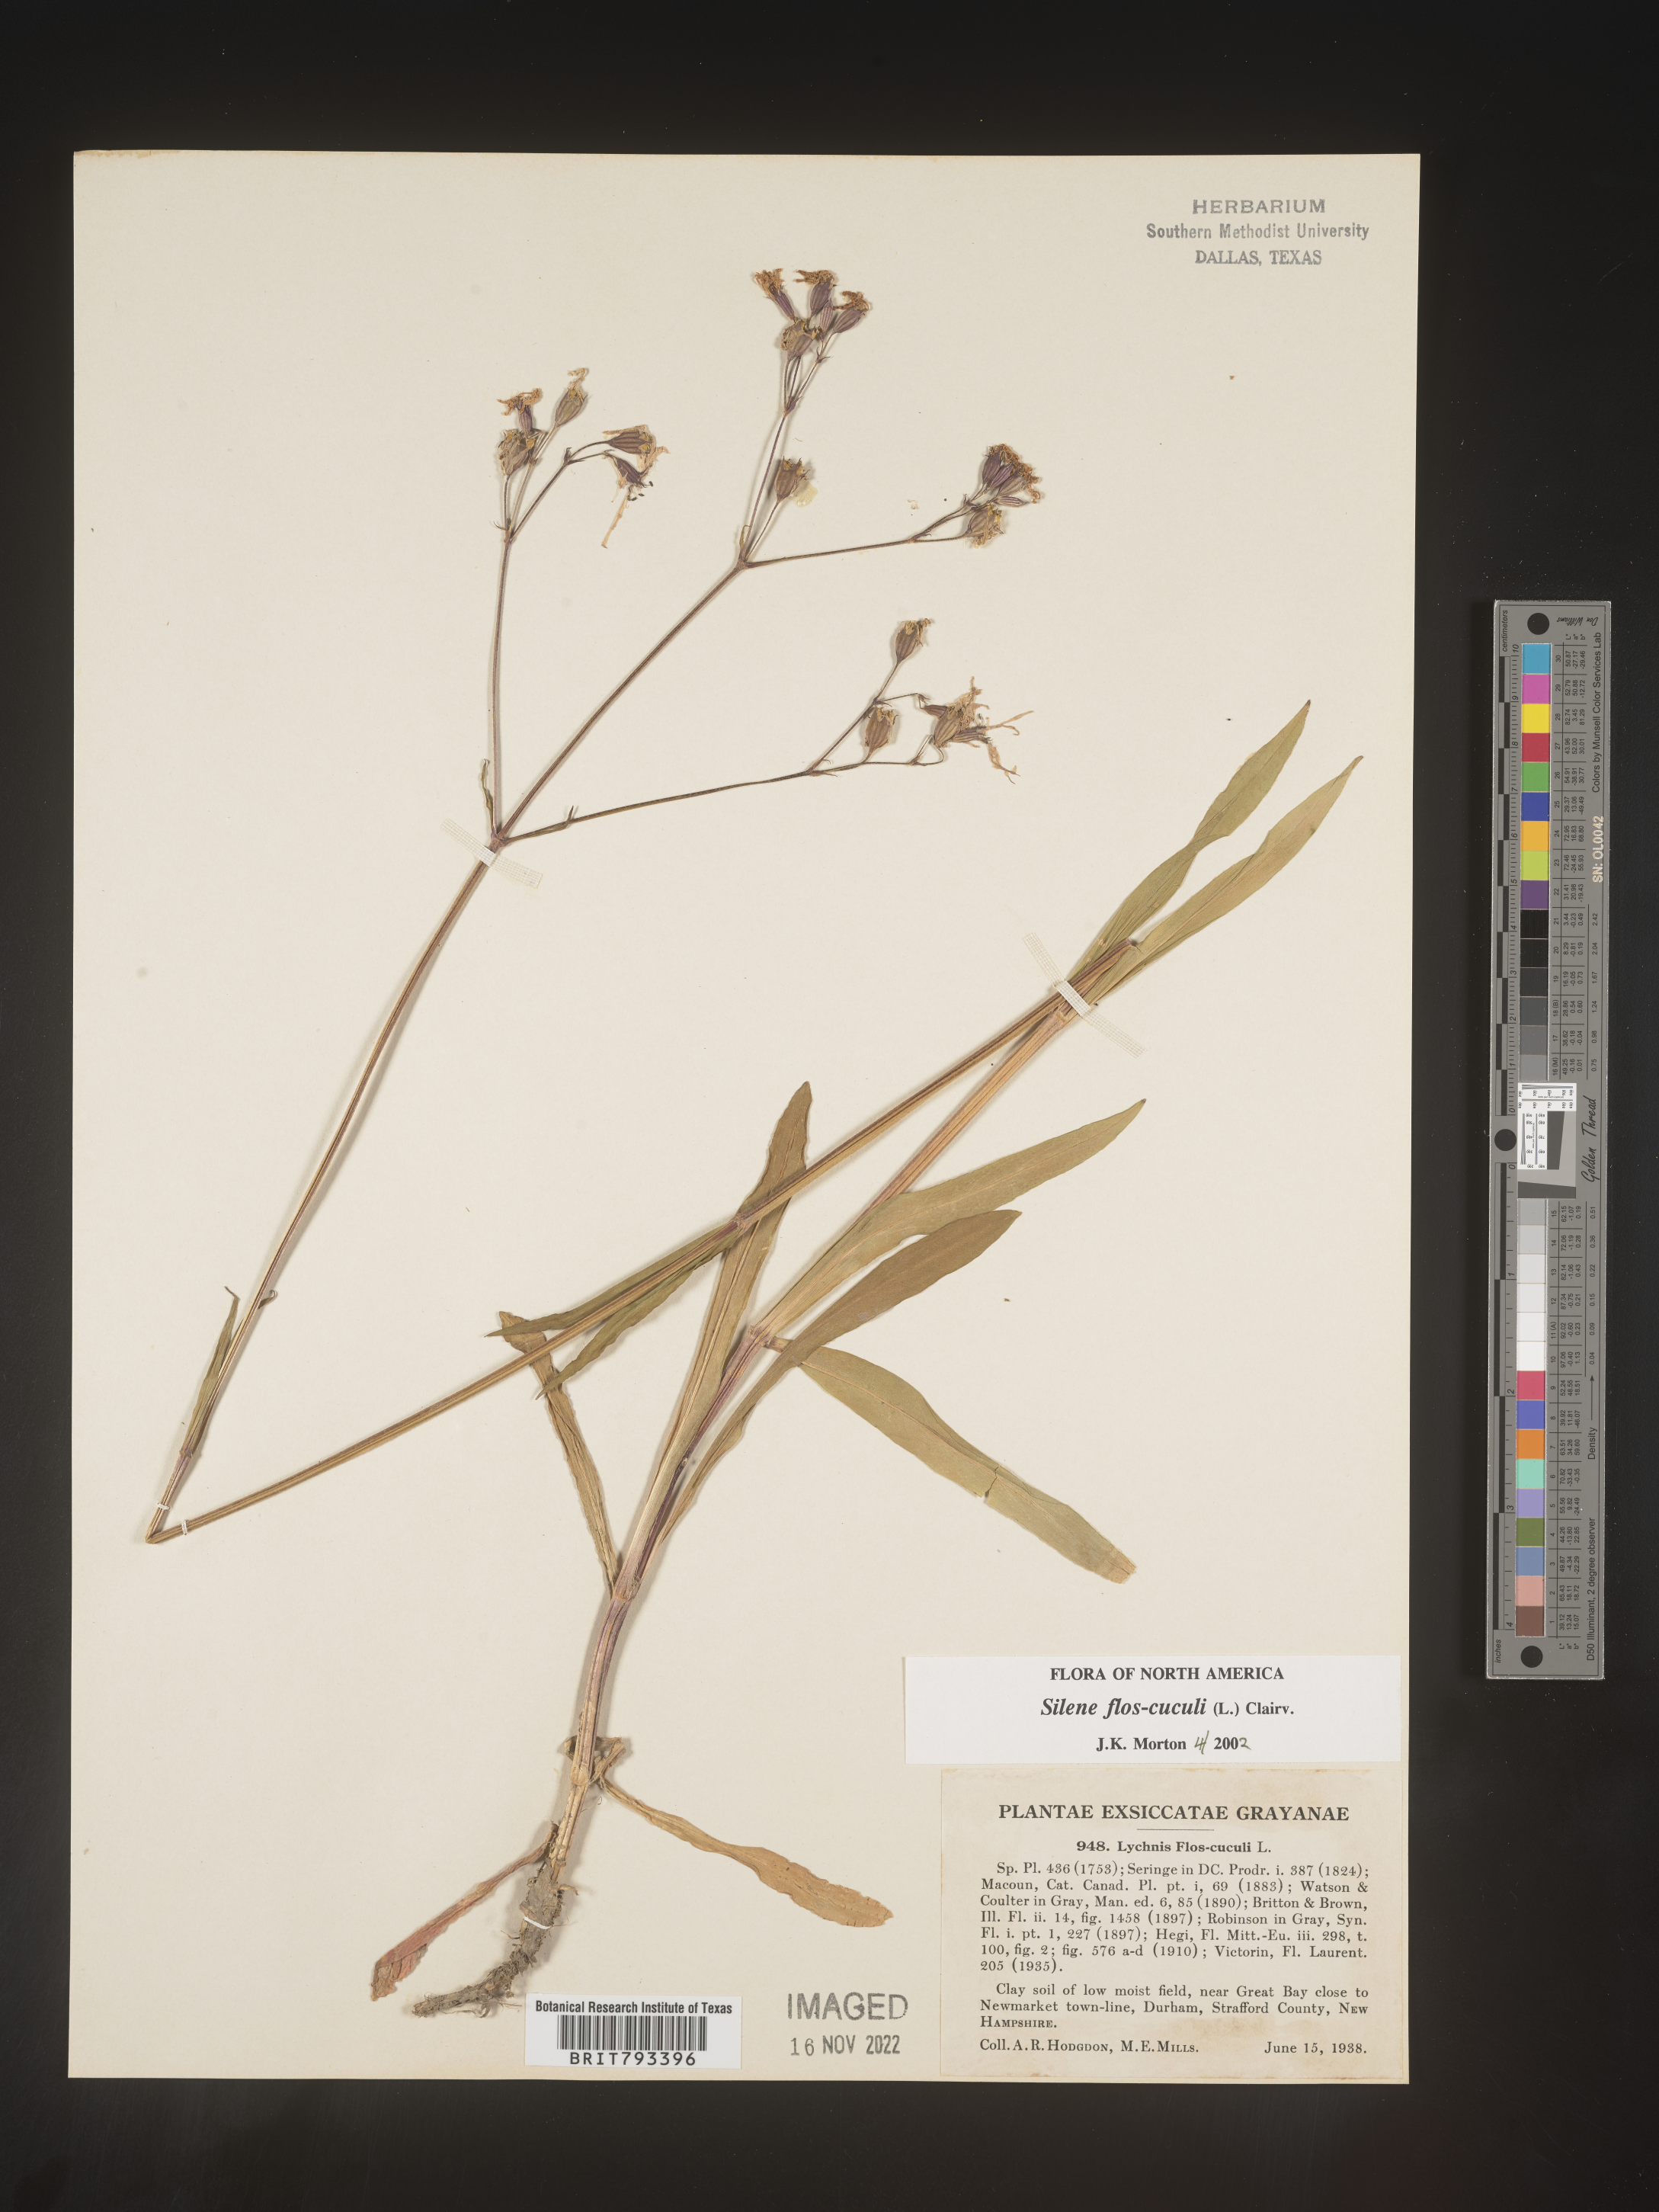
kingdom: Plantae
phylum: Tracheophyta
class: Magnoliopsida
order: Caryophyllales
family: Caryophyllaceae
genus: Silene
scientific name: Silene flos-cuculi
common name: Ragged-robin
